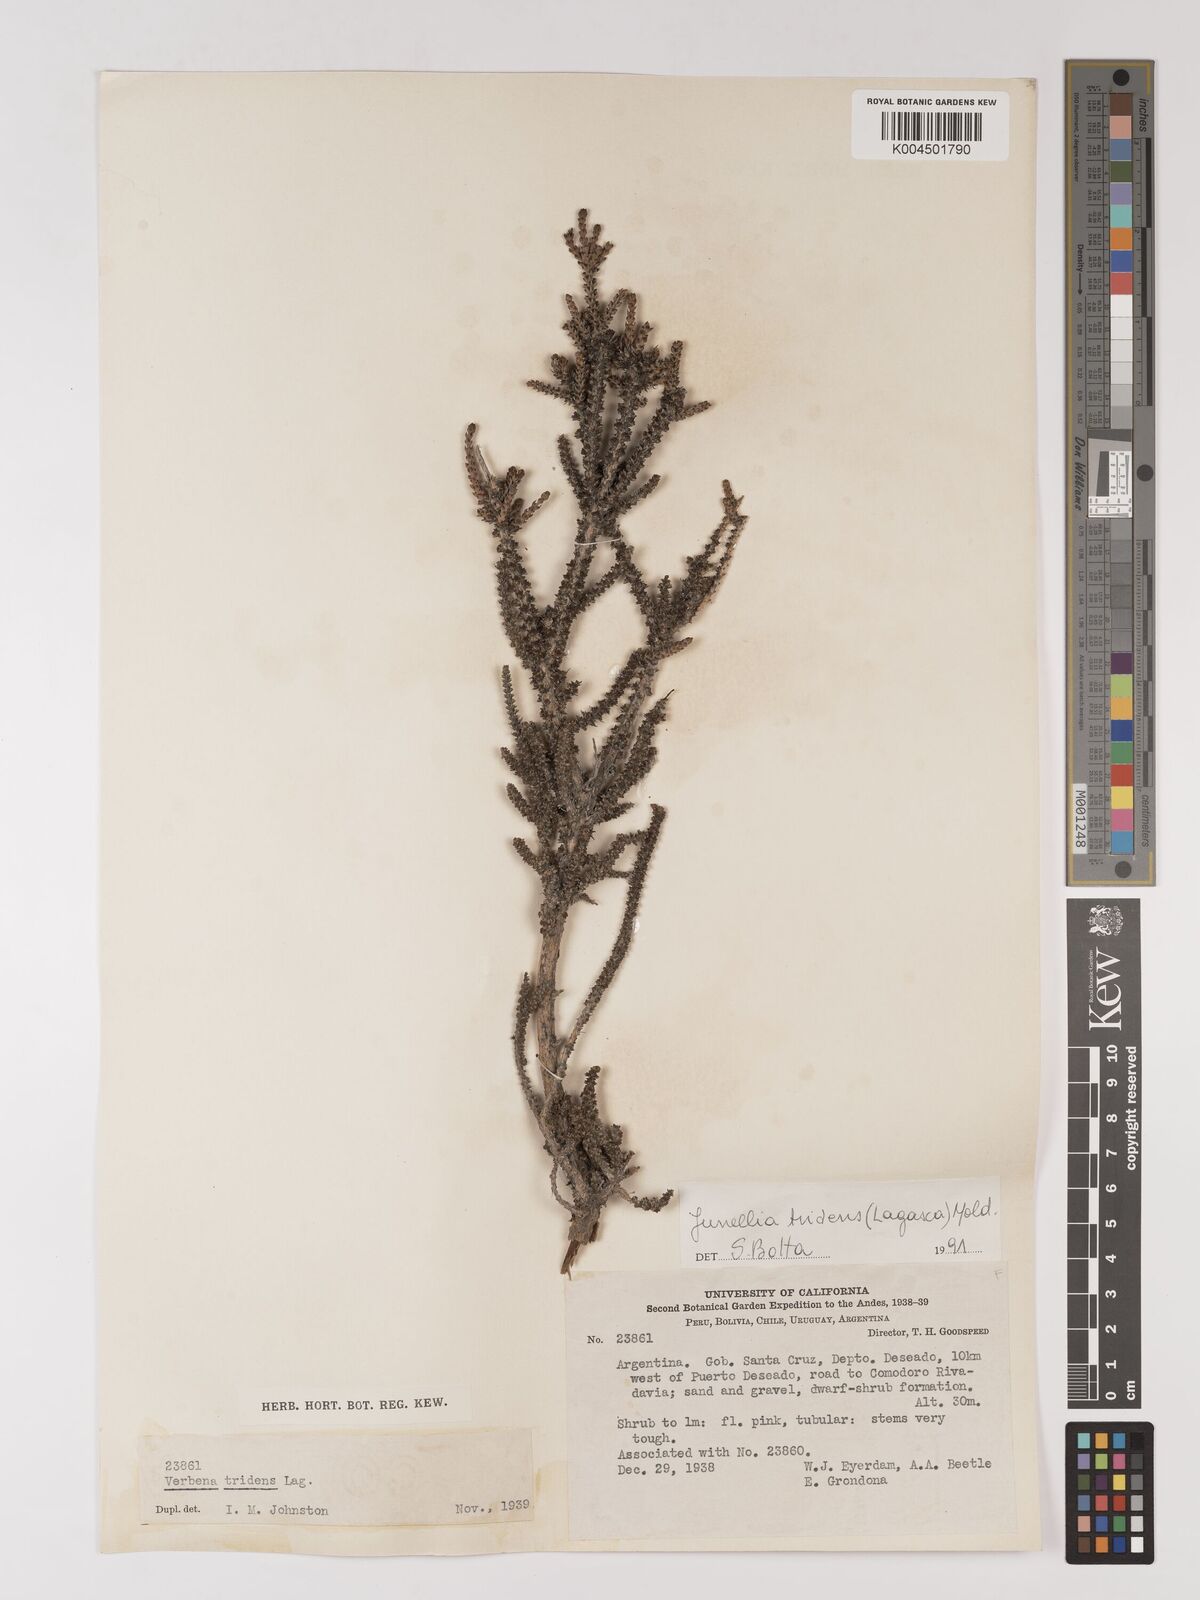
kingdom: Plantae
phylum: Tracheophyta
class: Magnoliopsida
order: Lamiales
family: Verbenaceae
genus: Mulguraea
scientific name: Mulguraea tridens
